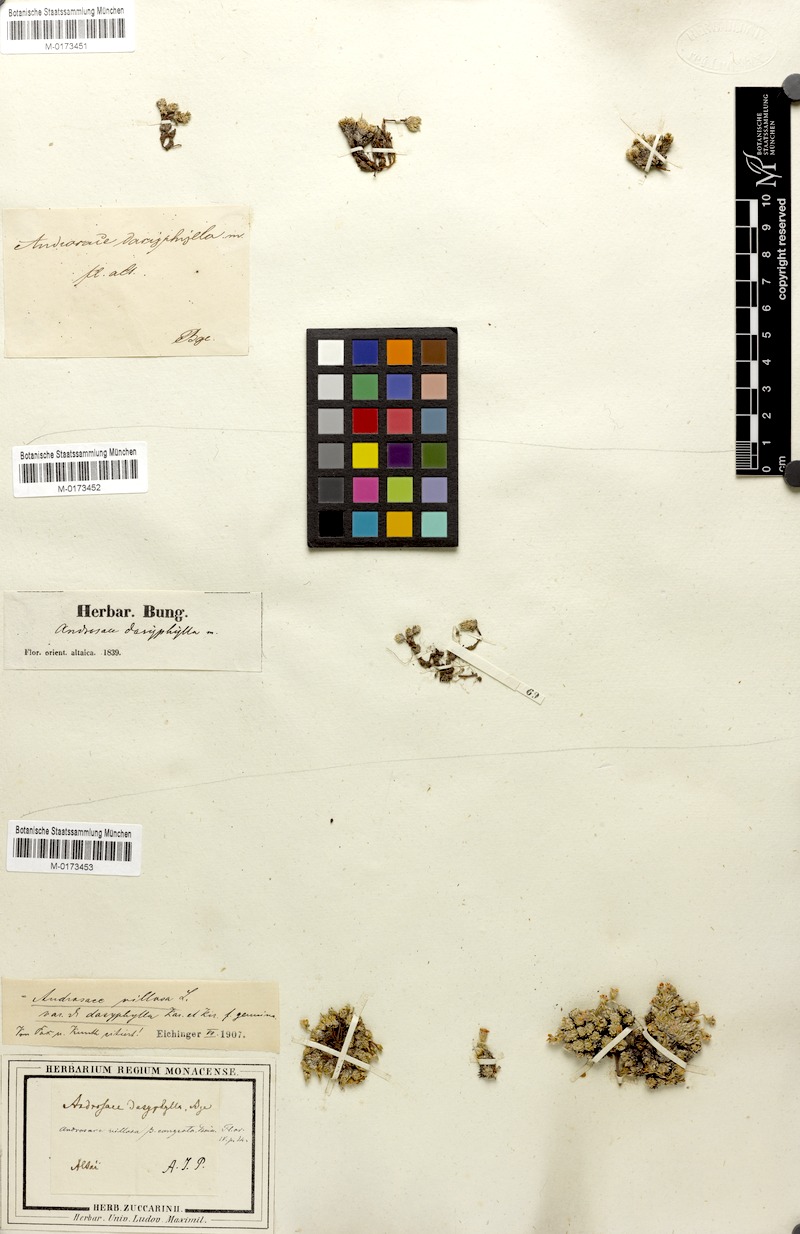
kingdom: Plantae
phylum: Tracheophyta
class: Magnoliopsida
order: Ericales
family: Primulaceae
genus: Androsace
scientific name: Androsace villosa
